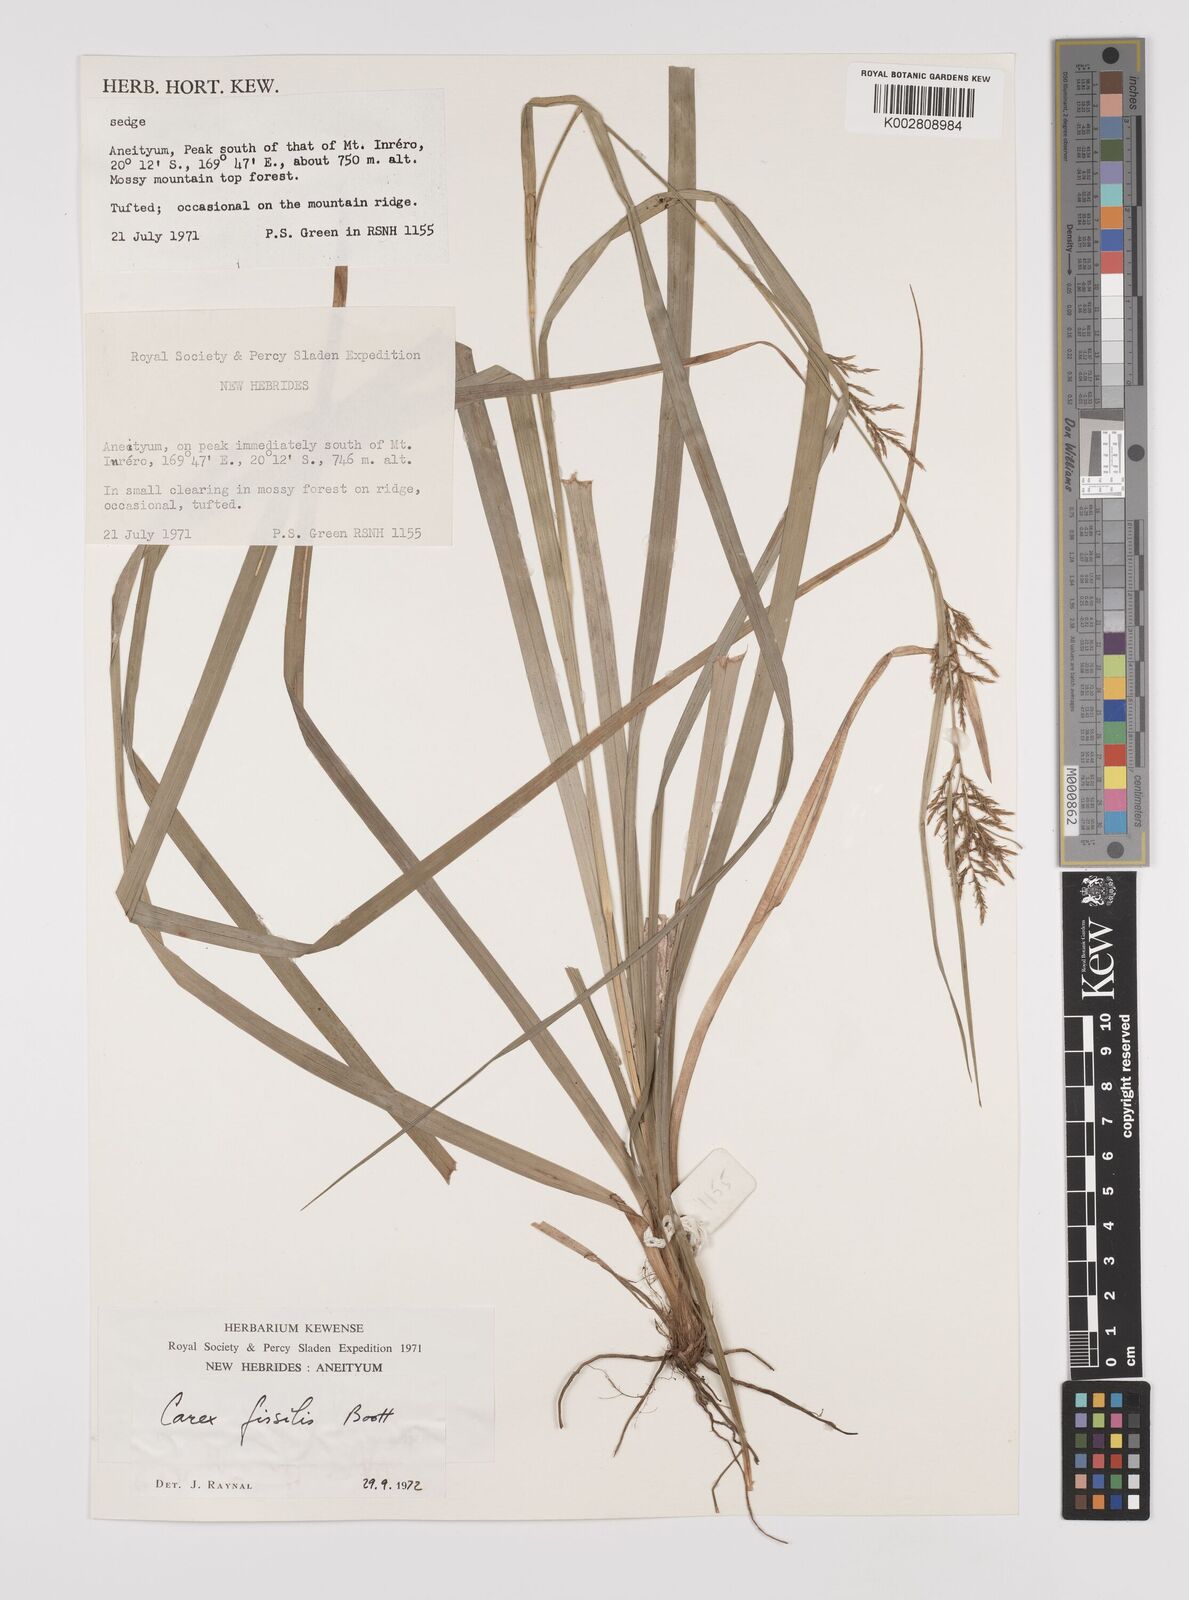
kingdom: Plantae
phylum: Tracheophyta
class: Liliopsida
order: Poales
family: Cyperaceae
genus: Carex
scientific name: Carex indica
